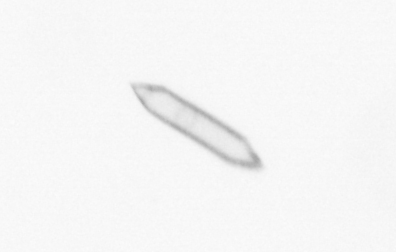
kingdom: Chromista
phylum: Ochrophyta
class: Bacillariophyceae
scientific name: Bacillariophyceae
